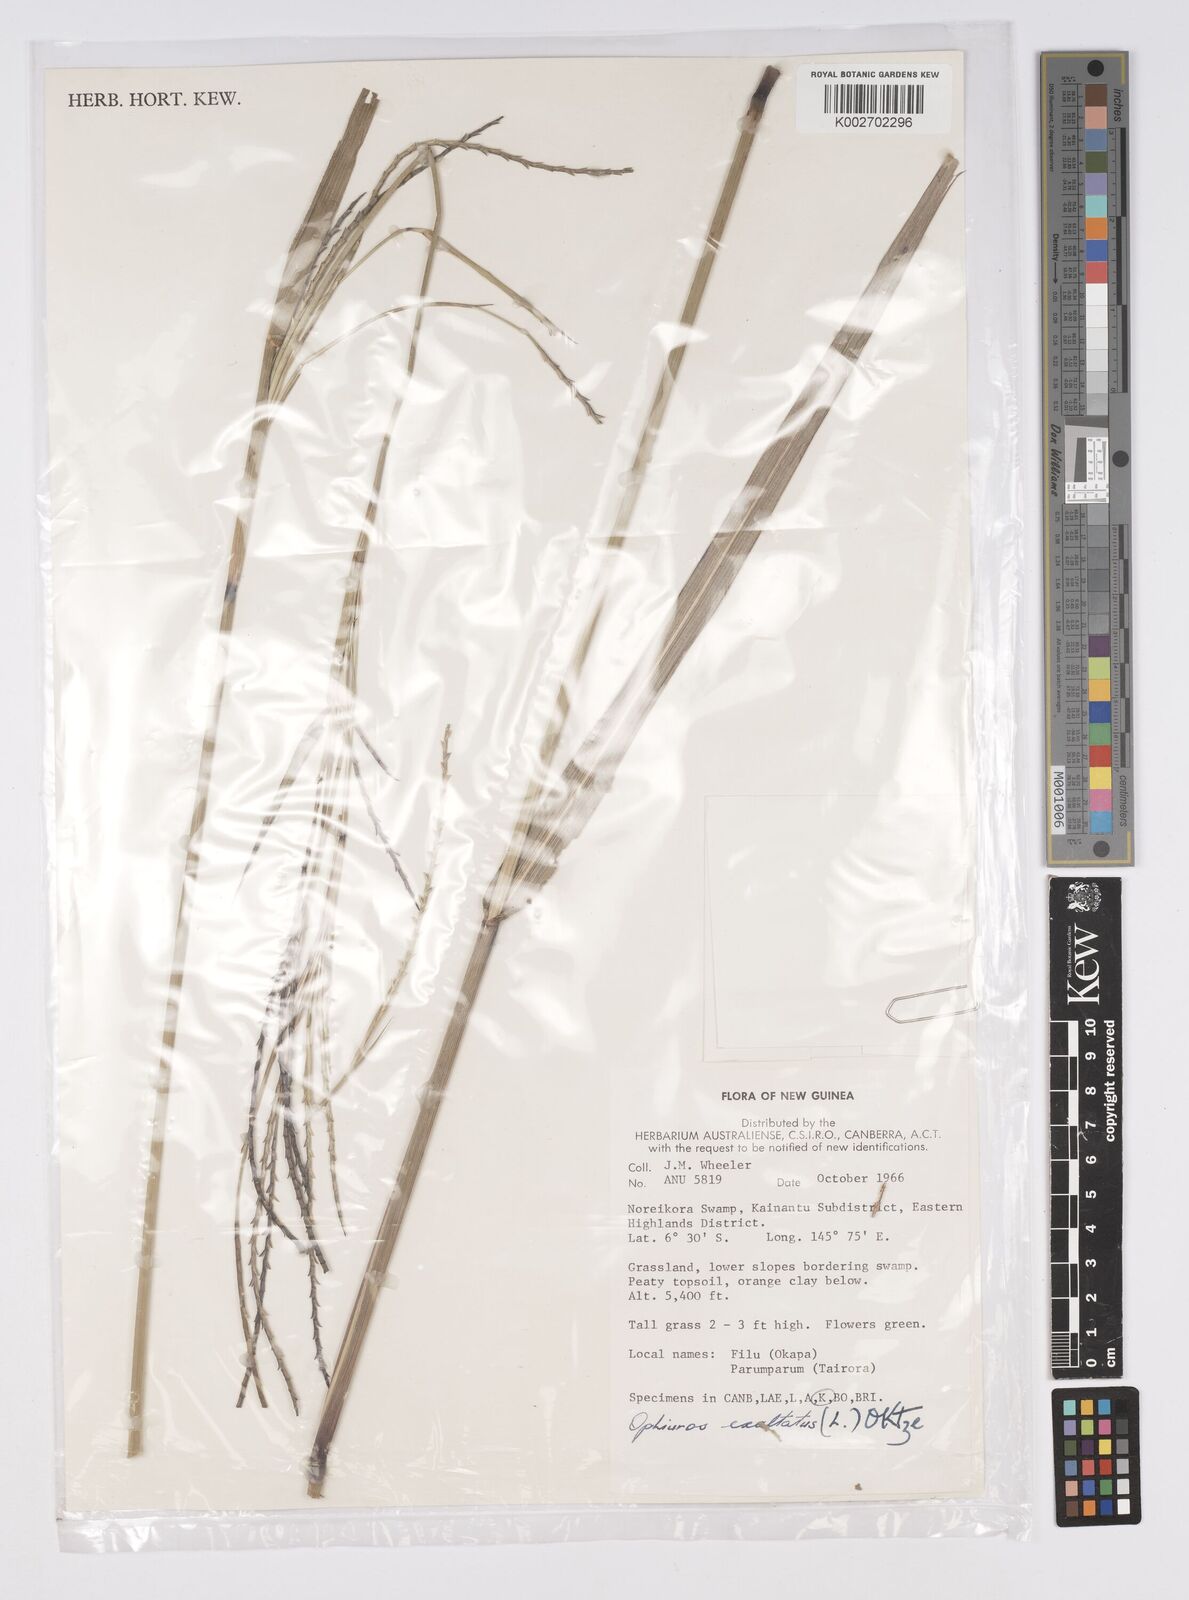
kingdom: Plantae
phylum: Tracheophyta
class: Liliopsida
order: Poales
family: Poaceae
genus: Ophiuros
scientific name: Ophiuros megaphyllus
